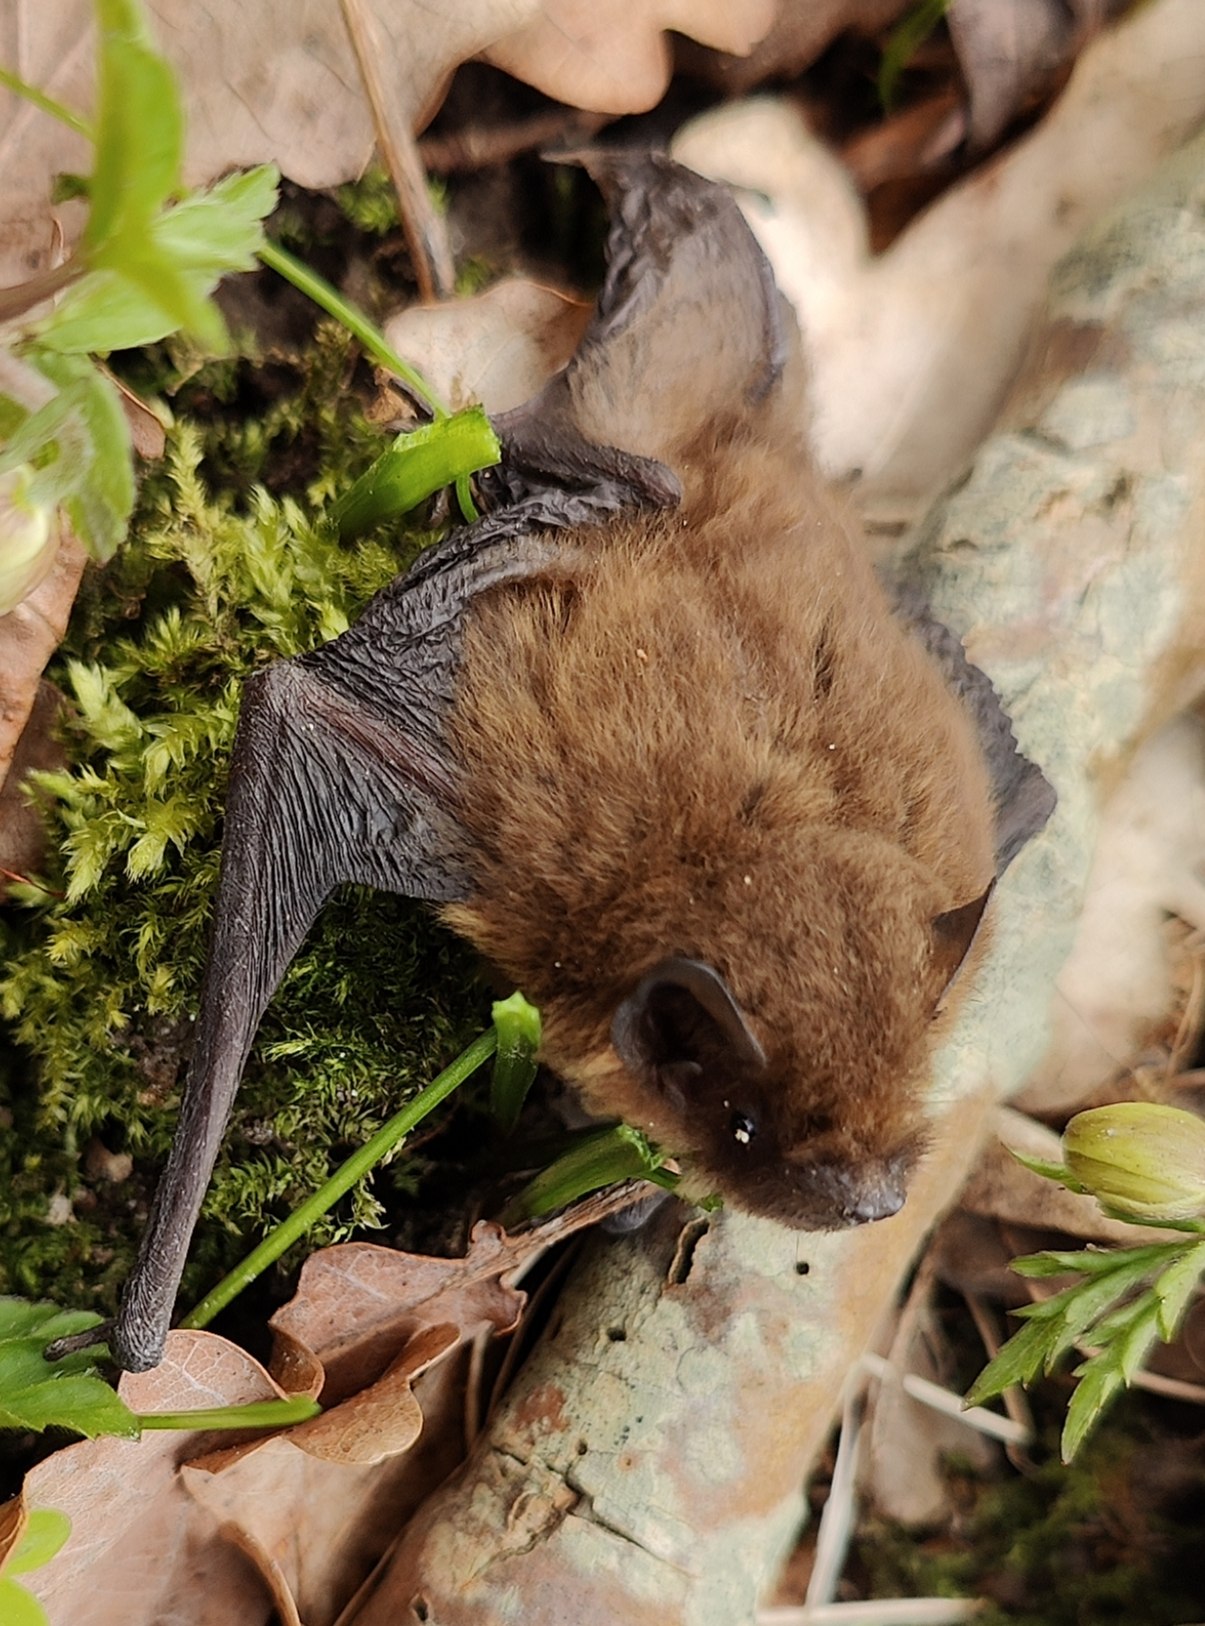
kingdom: Animalia
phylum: Chordata
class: Mammalia
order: Chiroptera
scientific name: Chiroptera
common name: Flagermus
